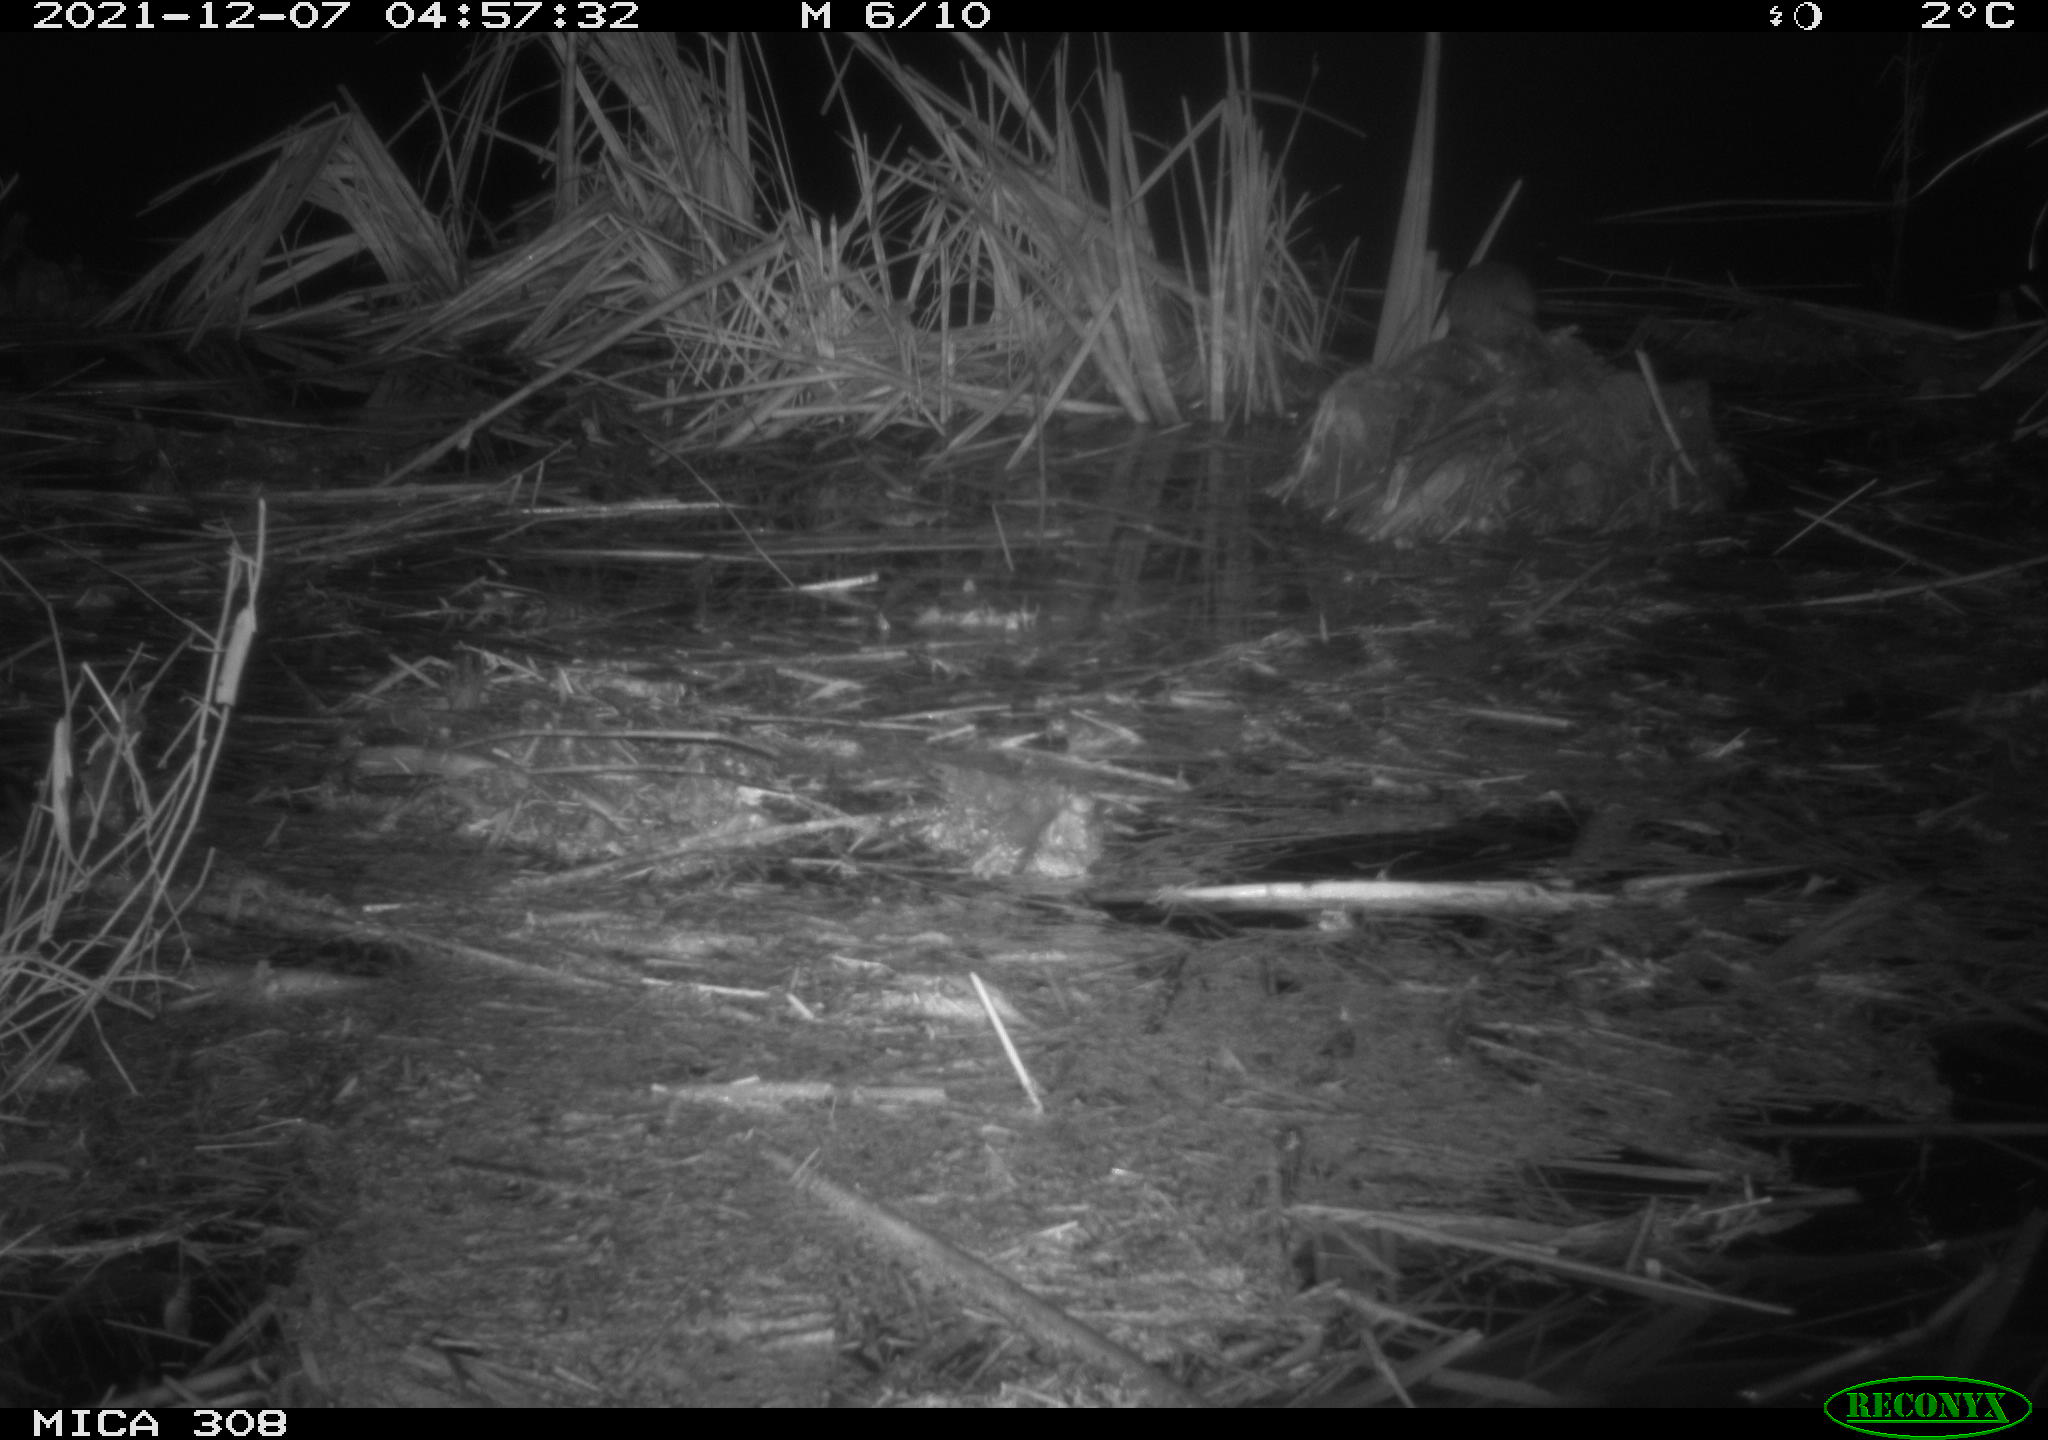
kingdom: Animalia
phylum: Chordata
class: Mammalia
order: Rodentia
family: Muridae
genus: Rattus
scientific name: Rattus norvegicus
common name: Brown rat
